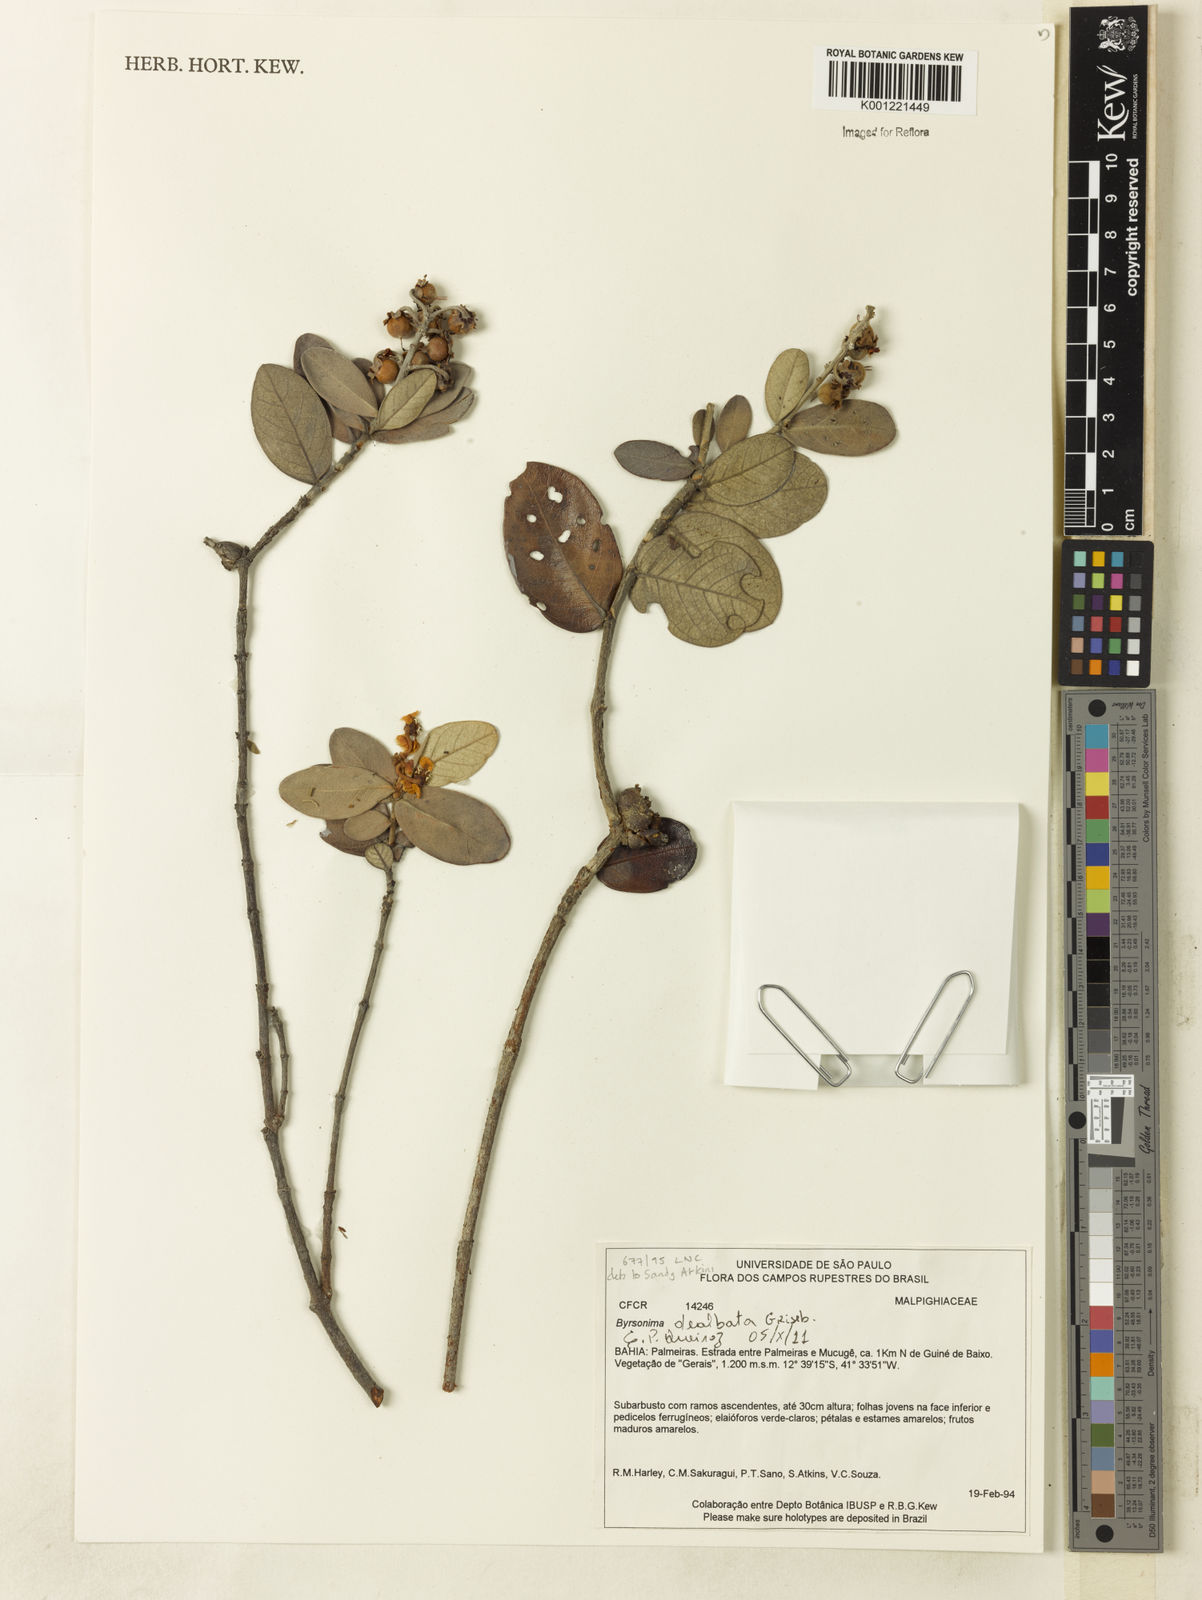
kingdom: Plantae
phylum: Tracheophyta
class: Magnoliopsida
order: Malpighiales
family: Malpighiaceae
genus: Byrsonima
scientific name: Byrsonima dealbata
